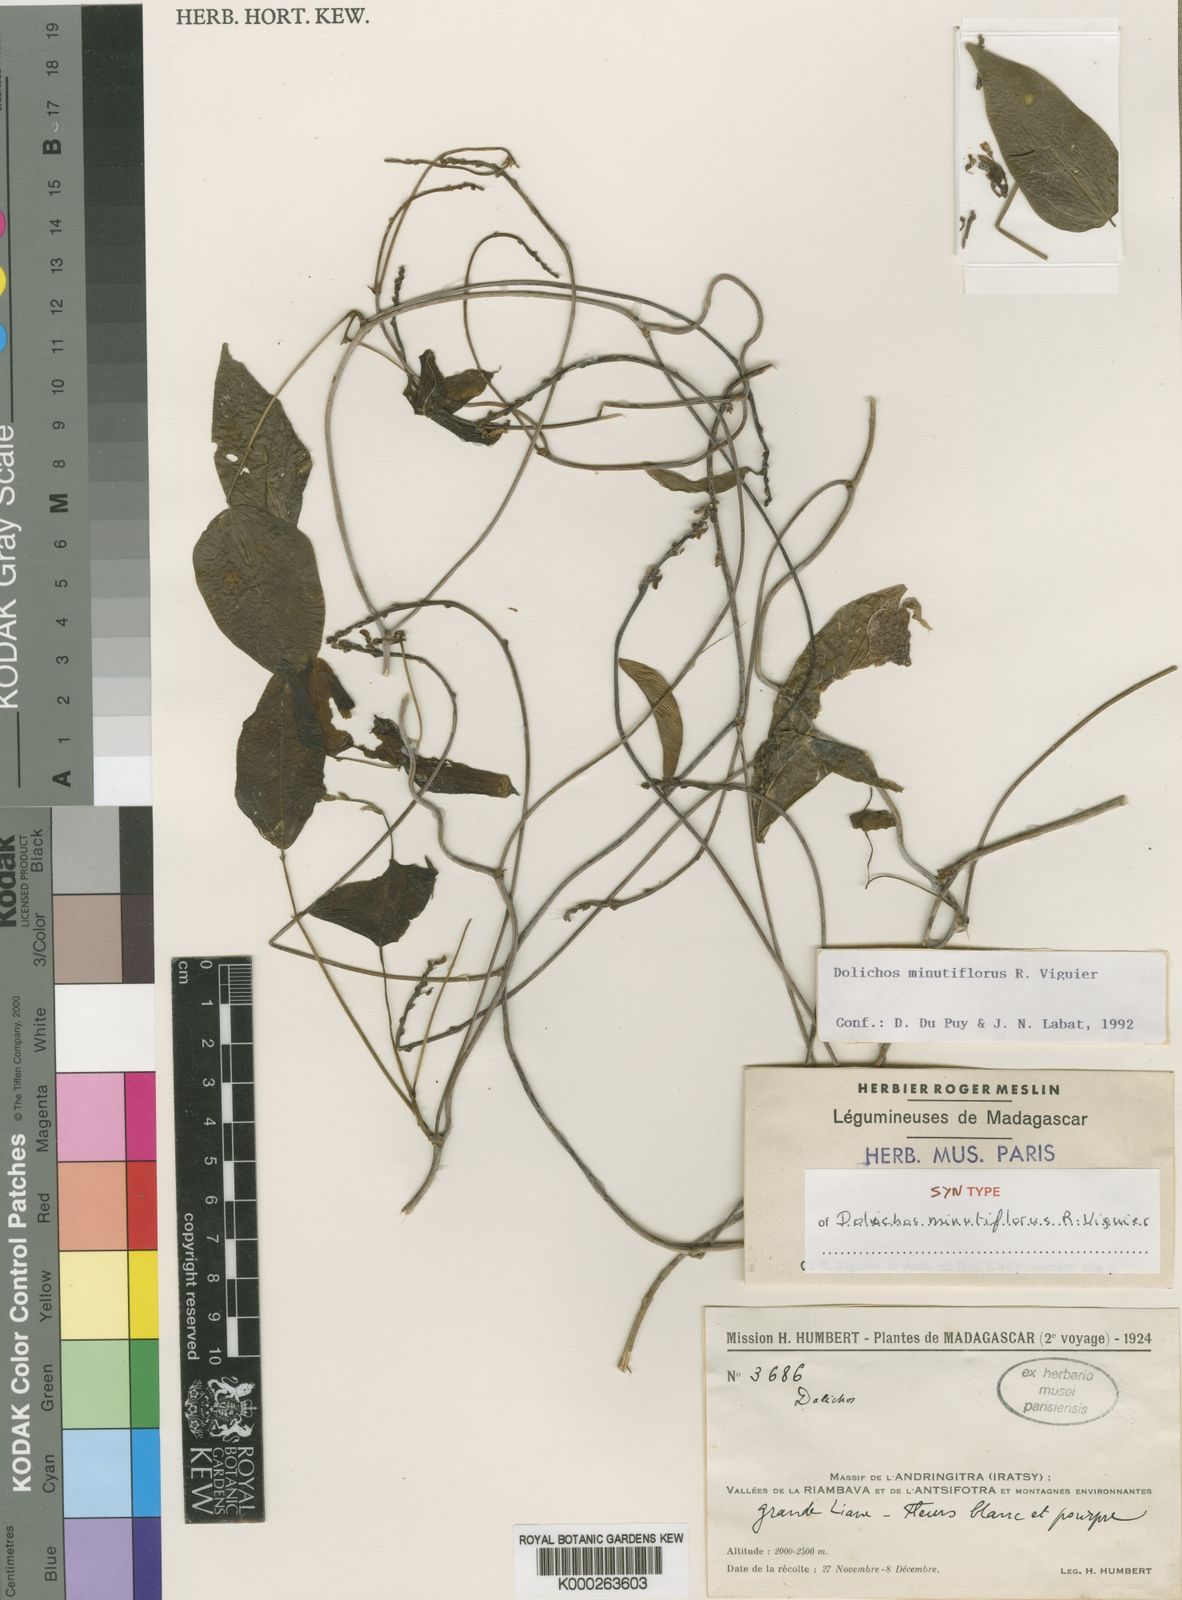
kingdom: Plantae
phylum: Tracheophyta
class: Magnoliopsida
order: Fabales
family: Fabaceae
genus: Dolichos
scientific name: Dolichos minutiflorus
